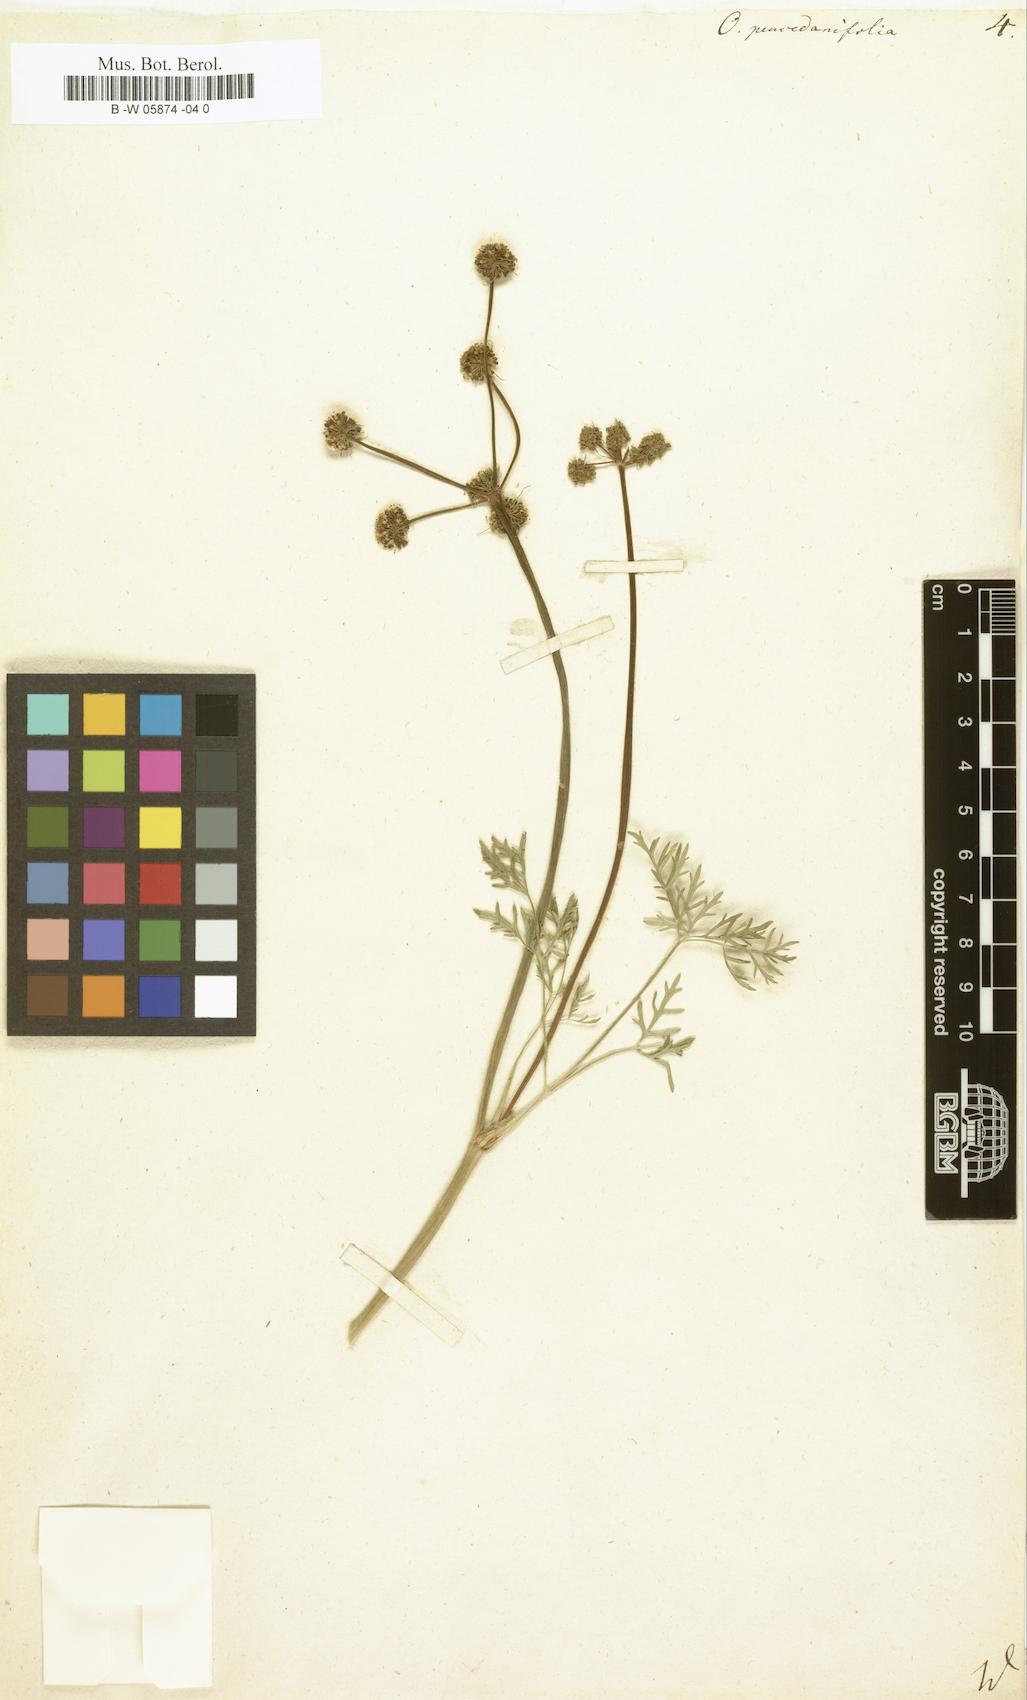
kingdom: Plantae
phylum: Tracheophyta
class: Magnoliopsida
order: Apiales
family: Apiaceae
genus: Oenanthe
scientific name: Oenanthe peucedanifolia
